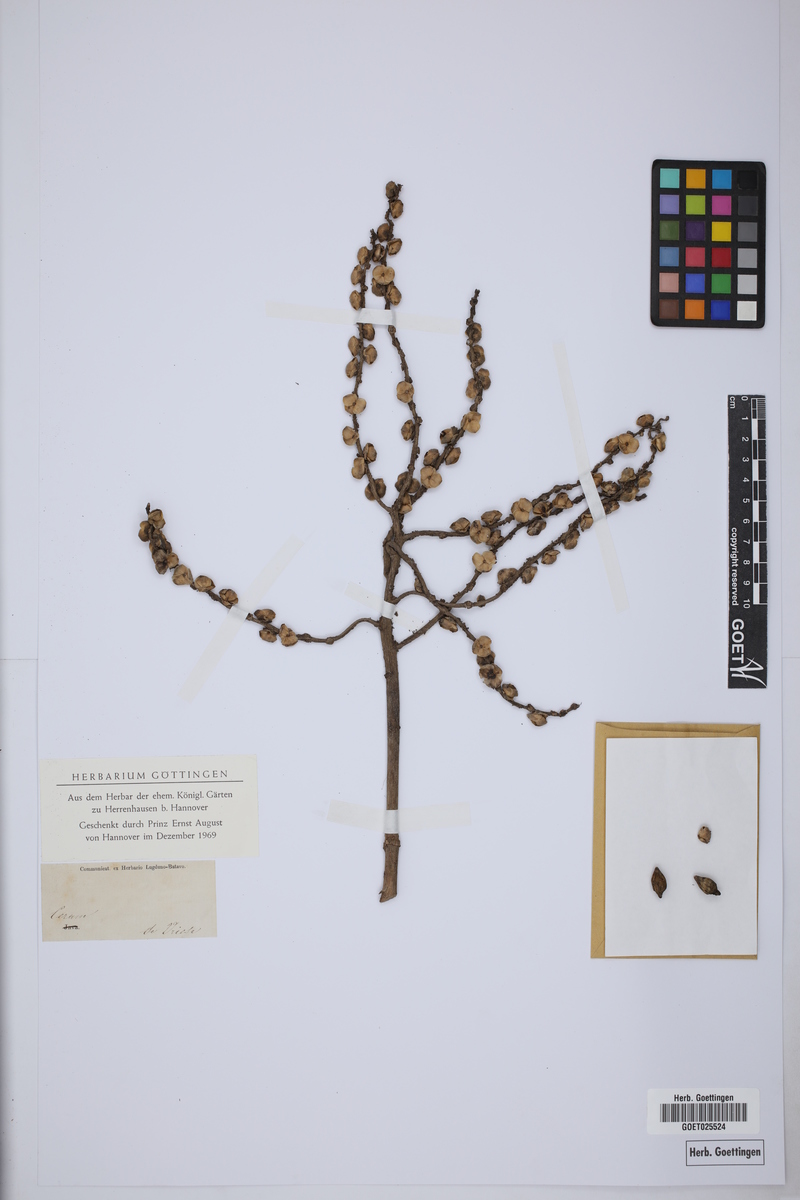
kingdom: Plantae
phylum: Tracheophyta
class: Liliopsida
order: Arecales
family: Arecaceae
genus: Drymophloeus
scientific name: Drymophloeus oliviformis
